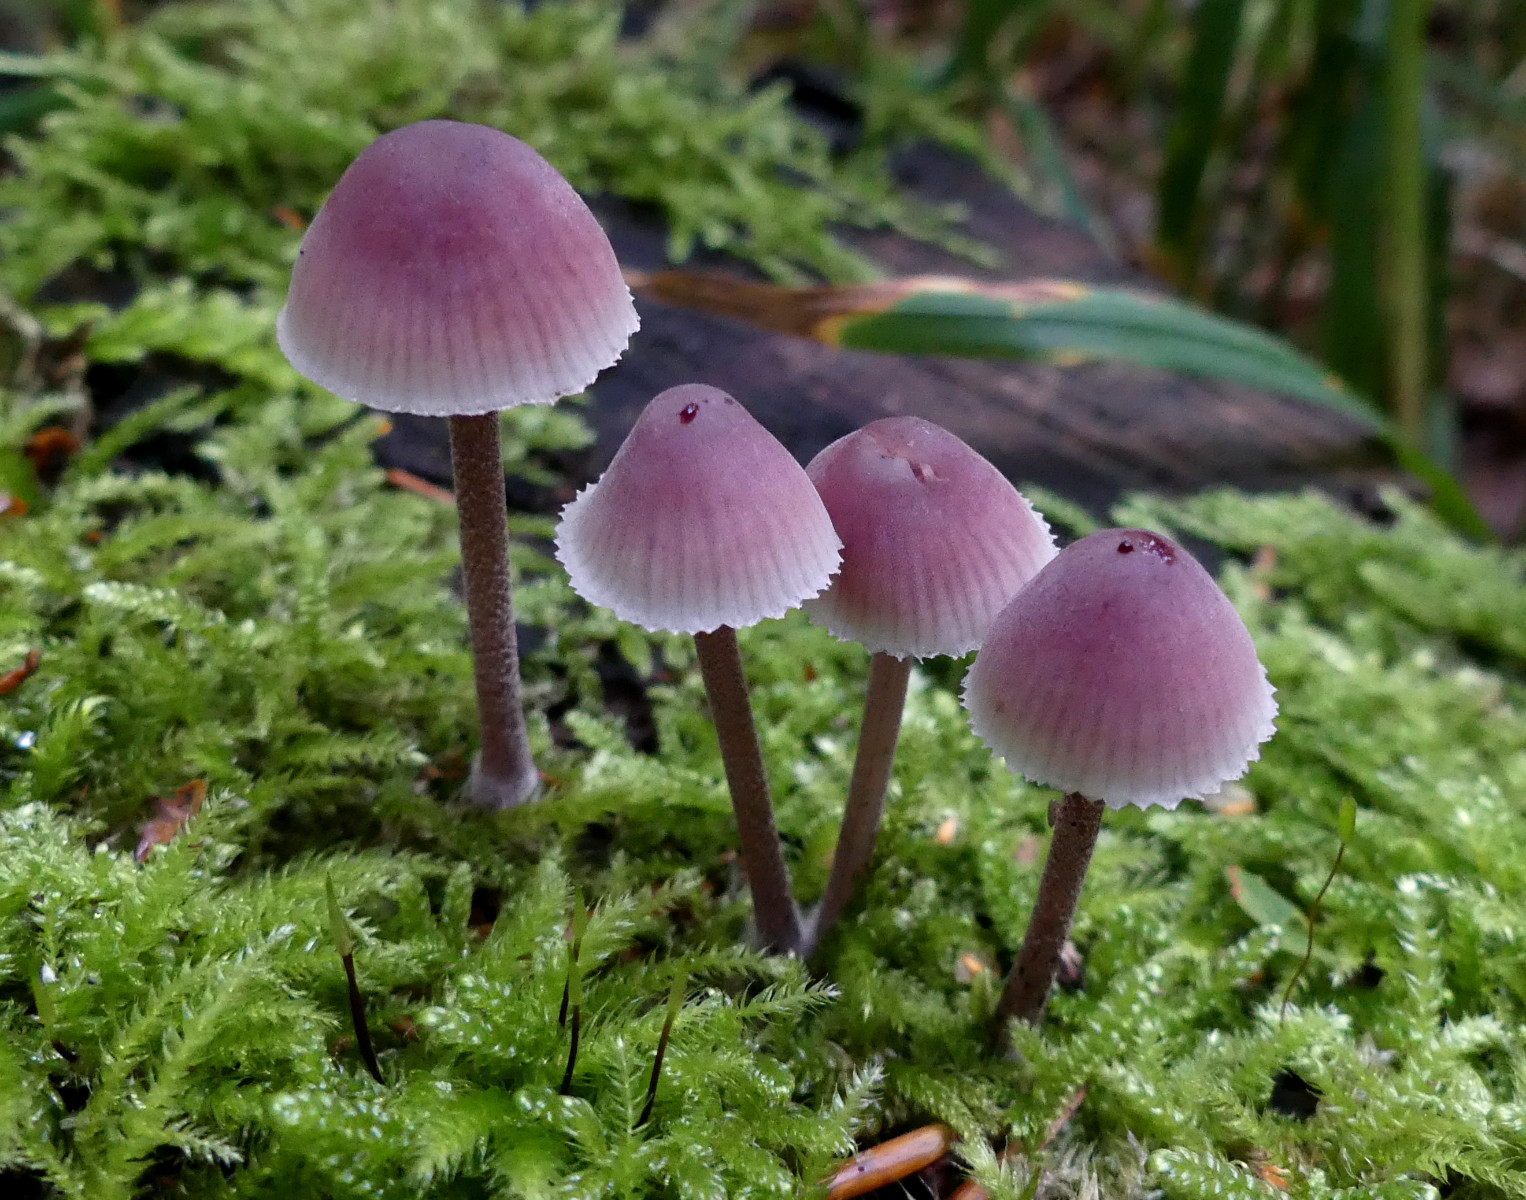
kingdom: Fungi
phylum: Basidiomycota
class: Agaricomycetes
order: Agaricales
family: Mycenaceae
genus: Mycena
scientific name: Mycena haematopus
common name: blødende huesvamp
